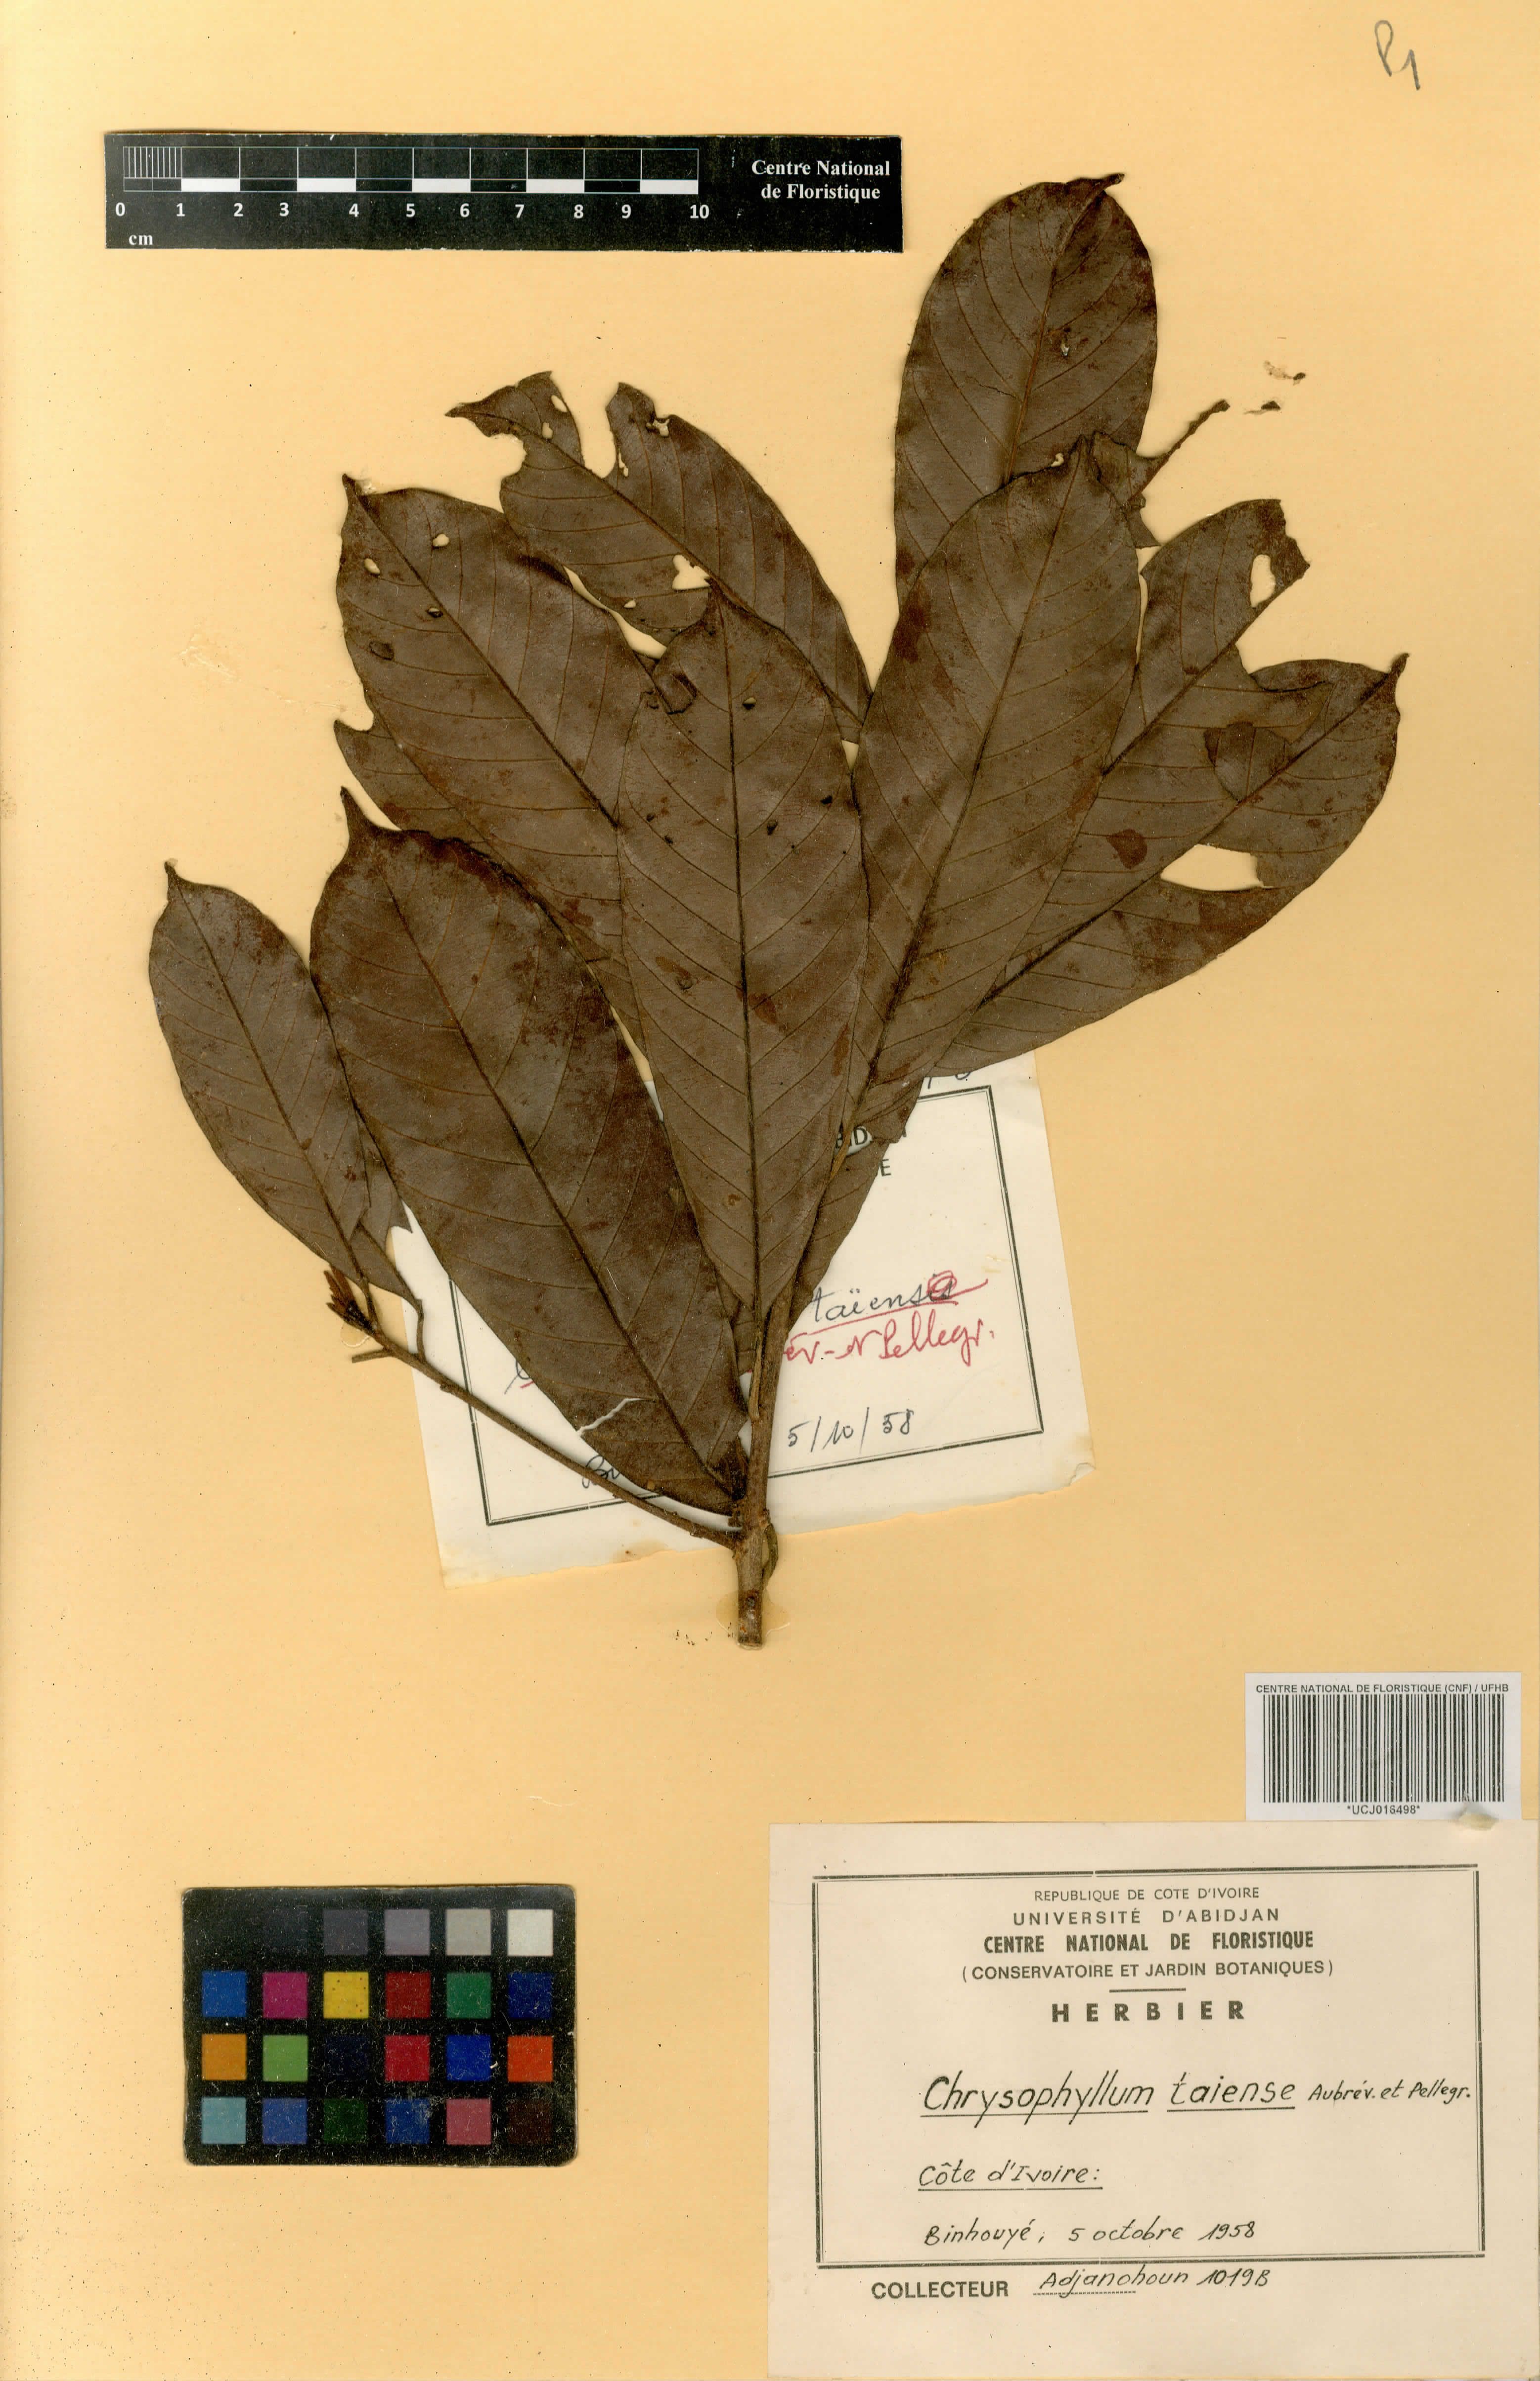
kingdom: Plantae
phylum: Tracheophyta
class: Magnoliopsida
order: Ericales
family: Sapotaceae
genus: Gambeya
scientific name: Gambeya taiensis
